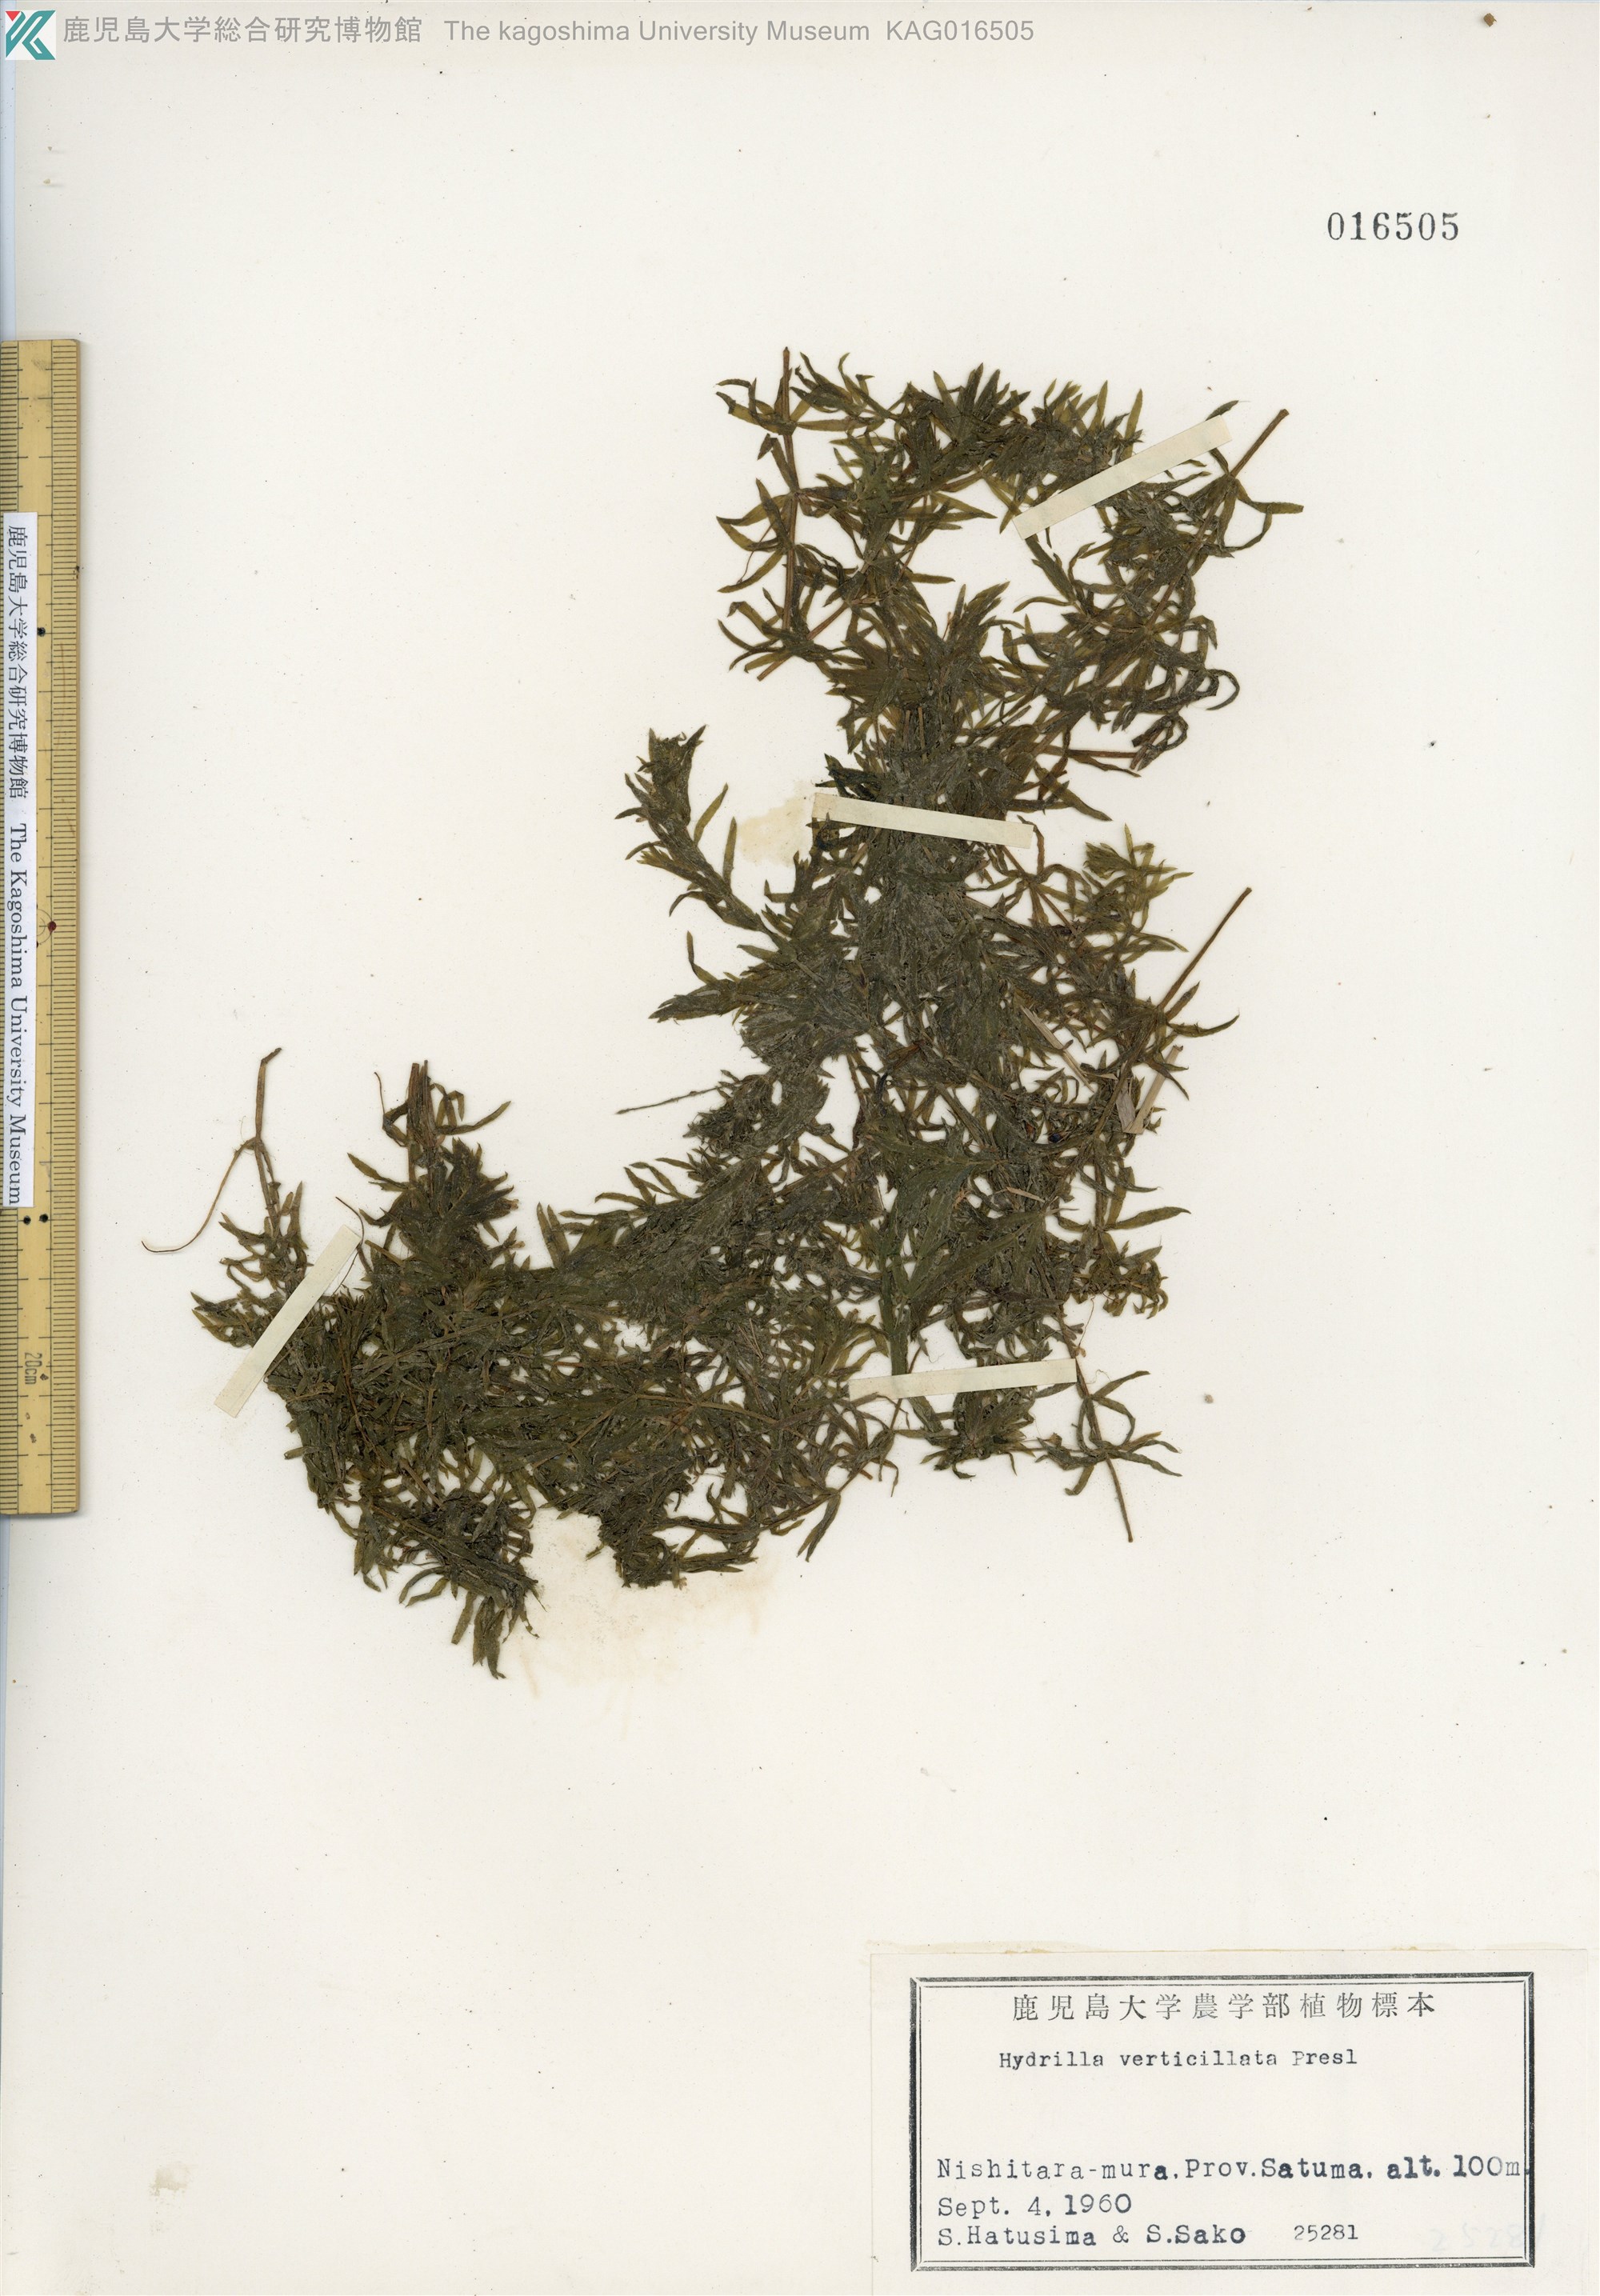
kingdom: Plantae
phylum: Tracheophyta
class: Liliopsida
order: Alismatales
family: Hydrocharitaceae
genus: Hydrilla
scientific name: Hydrilla verticillata
